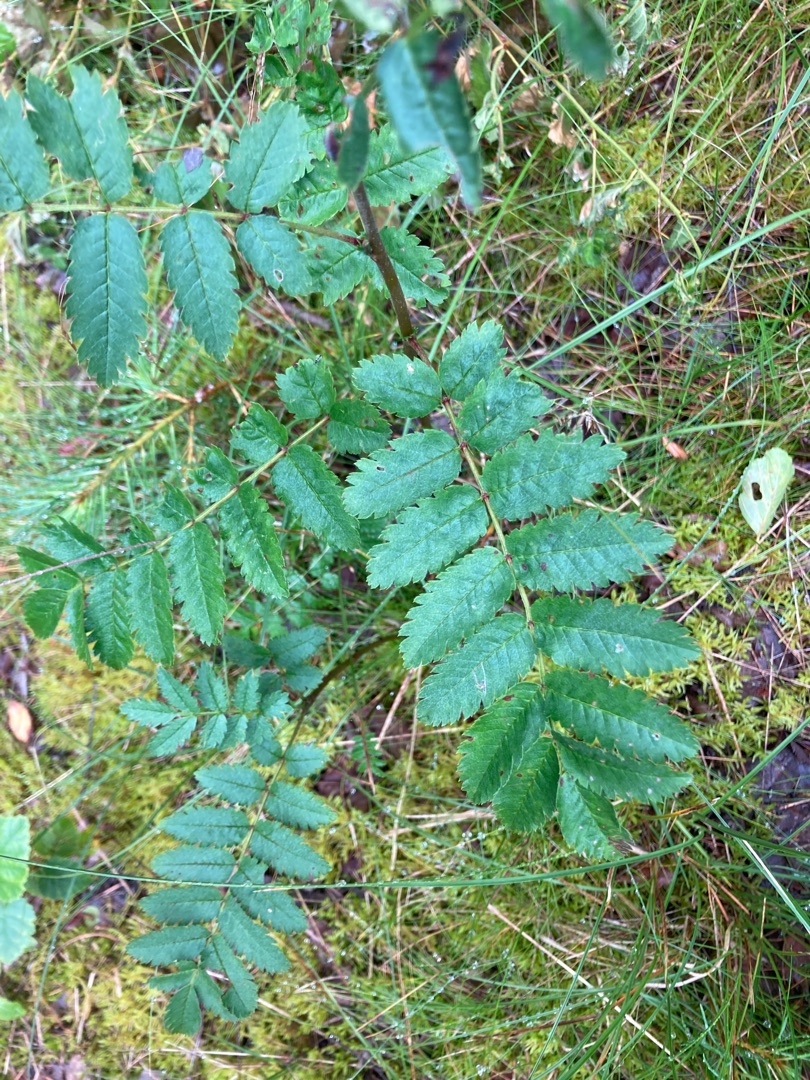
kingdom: Plantae
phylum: Tracheophyta
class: Magnoliopsida
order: Rosales
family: Rosaceae
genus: Sorbus
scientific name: Sorbus aucuparia
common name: Almindelig røn
